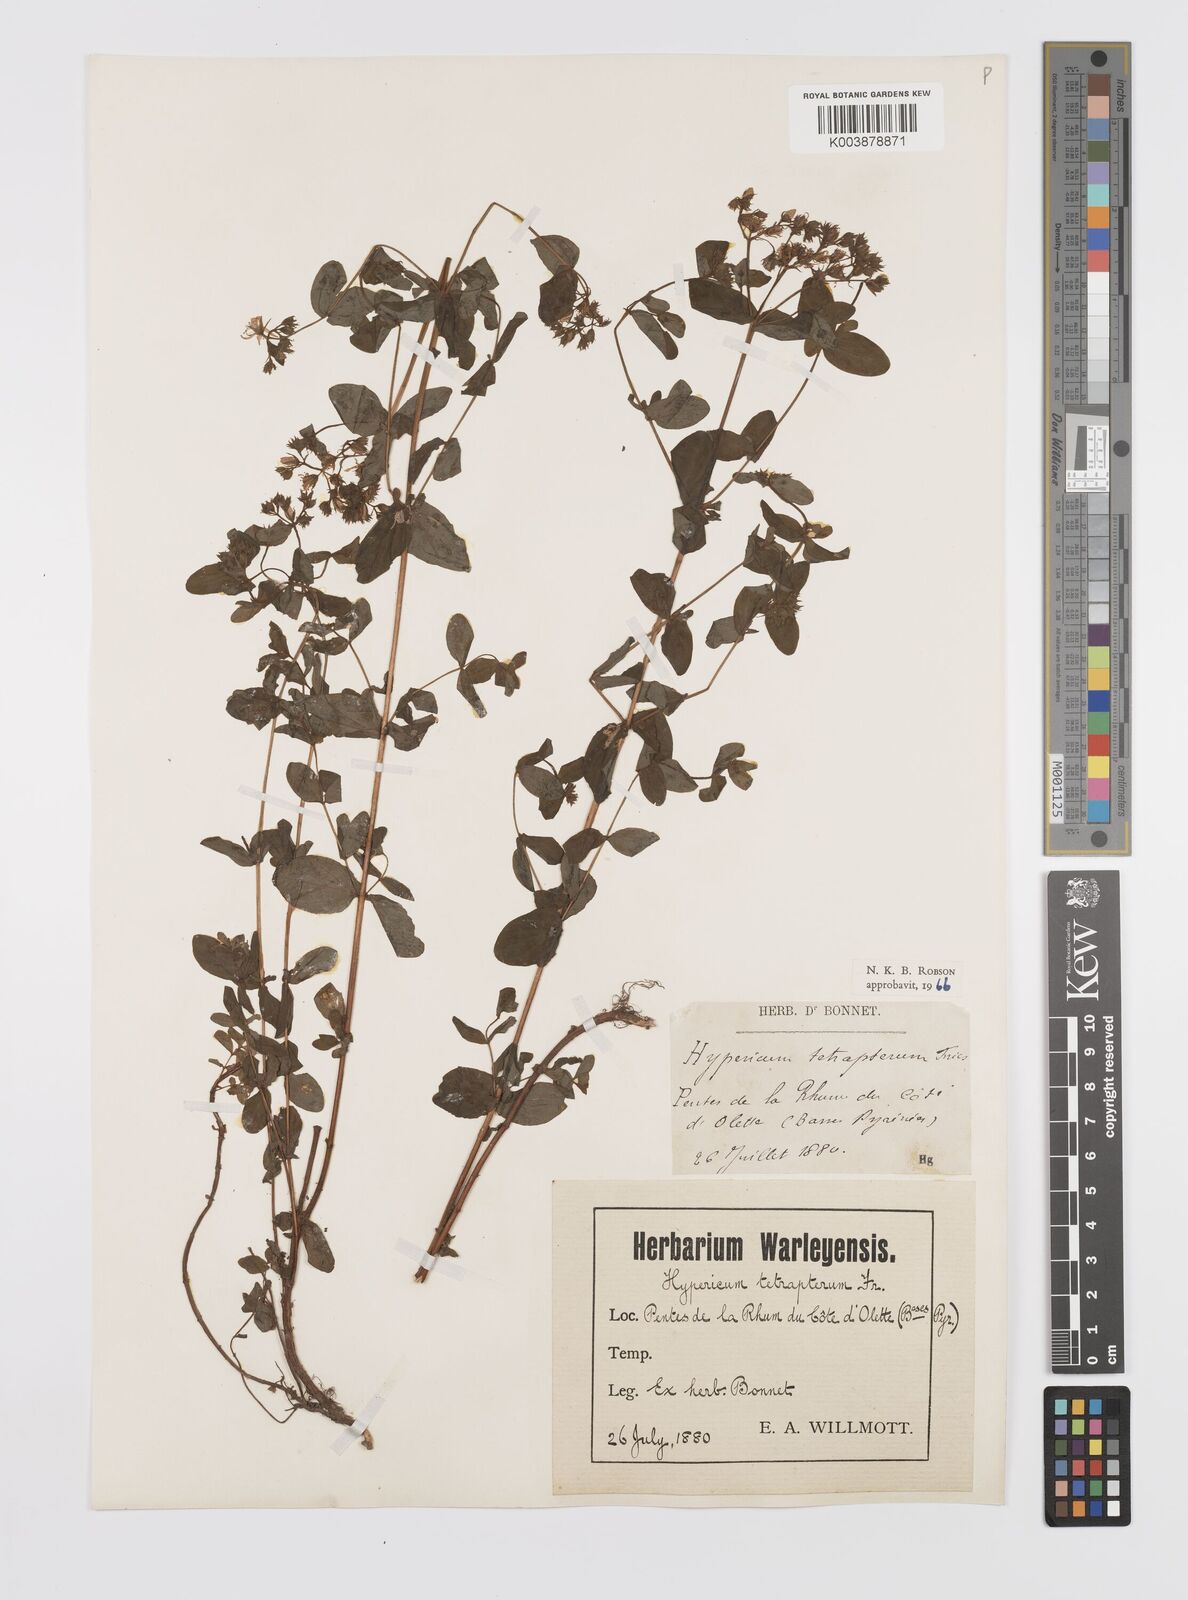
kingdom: Plantae
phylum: Tracheophyta
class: Magnoliopsida
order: Malpighiales
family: Hypericaceae
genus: Hypericum
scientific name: Hypericum tetrapterum
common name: Square-stalked st. john's-wort
